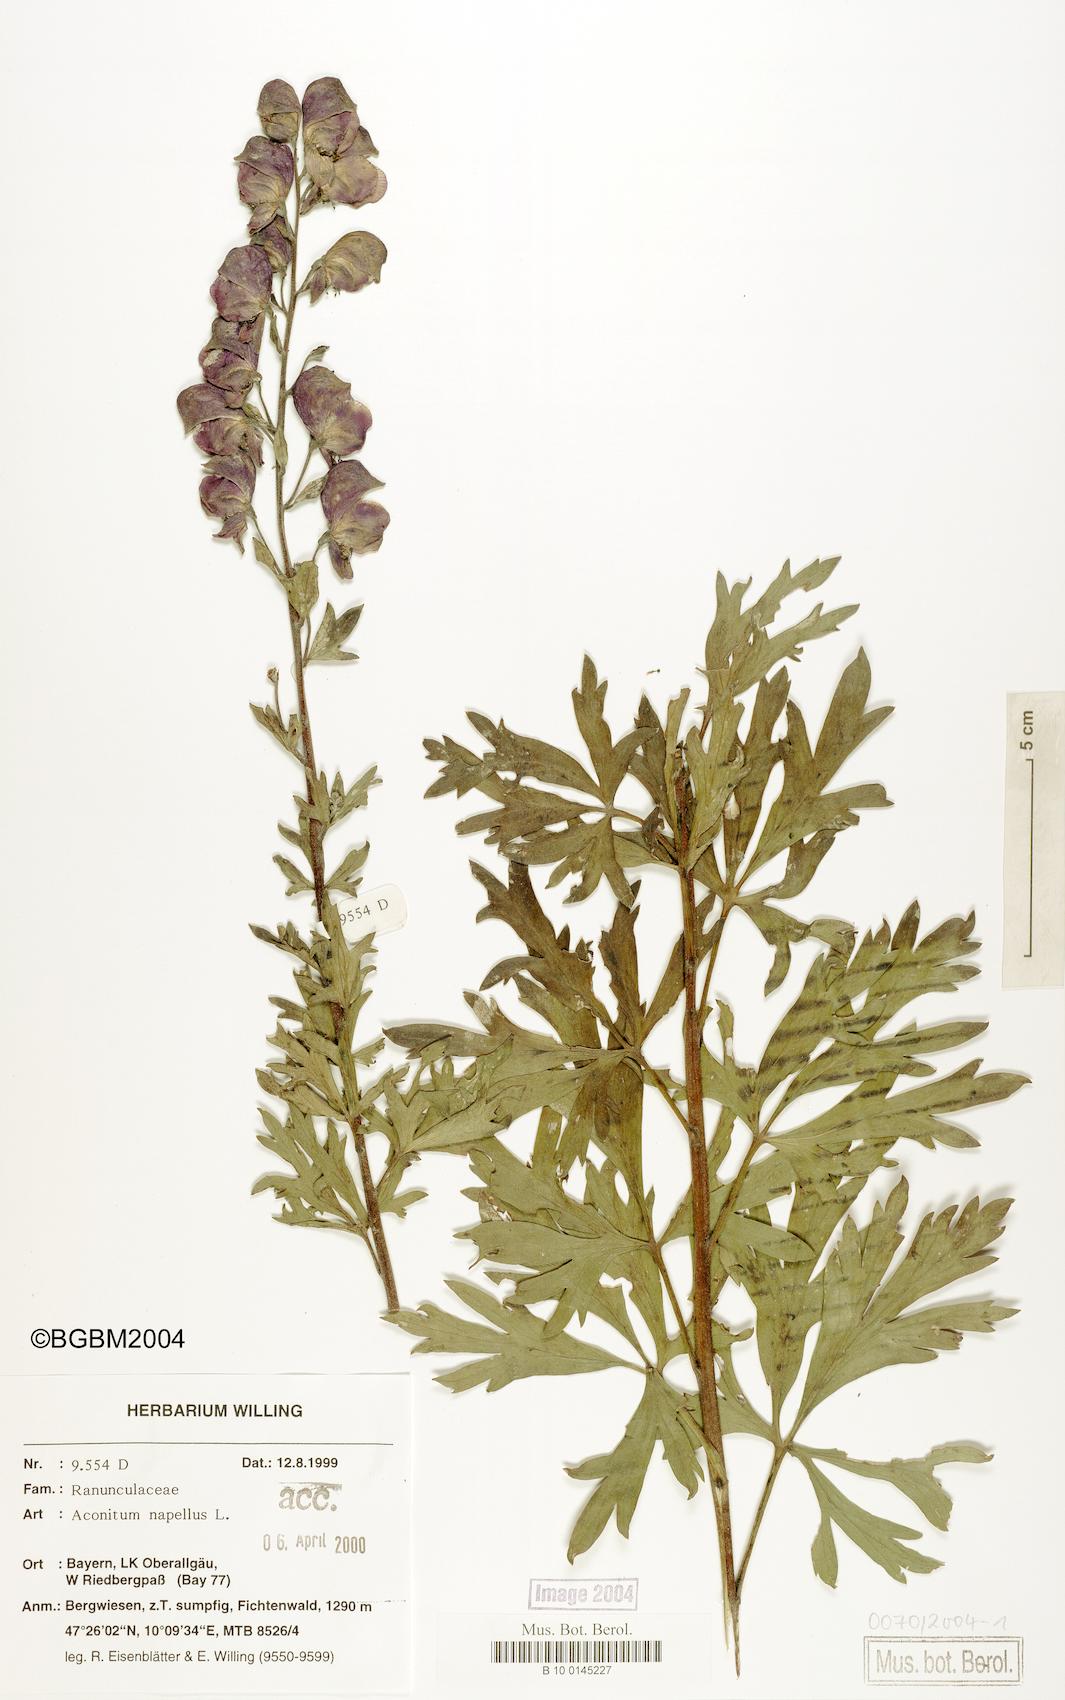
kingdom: Plantae
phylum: Tracheophyta
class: Magnoliopsida
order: Ranunculales
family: Ranunculaceae
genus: Aconitum
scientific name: Aconitum napellus
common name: Garden monkshood
